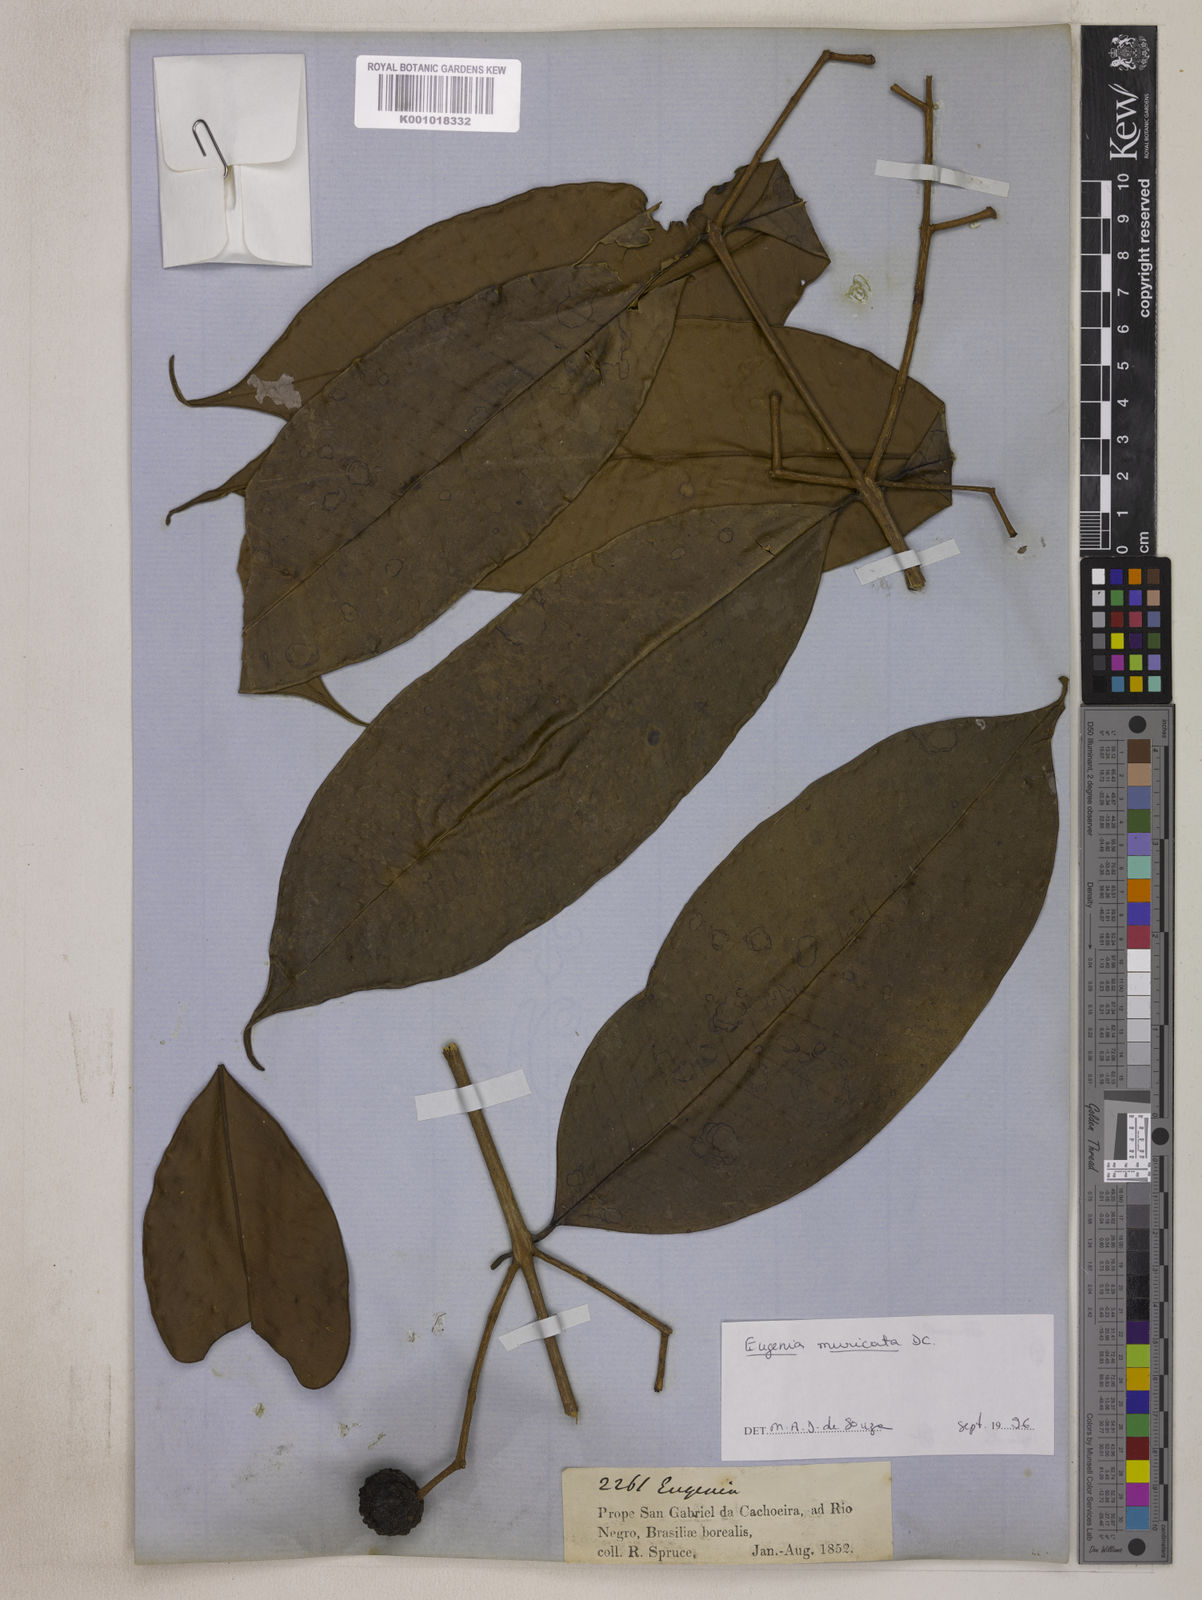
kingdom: Plantae
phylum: Tracheophyta
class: Magnoliopsida
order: Myrtales
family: Myrtaceae
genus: Eugenia
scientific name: Eugenia muricata
